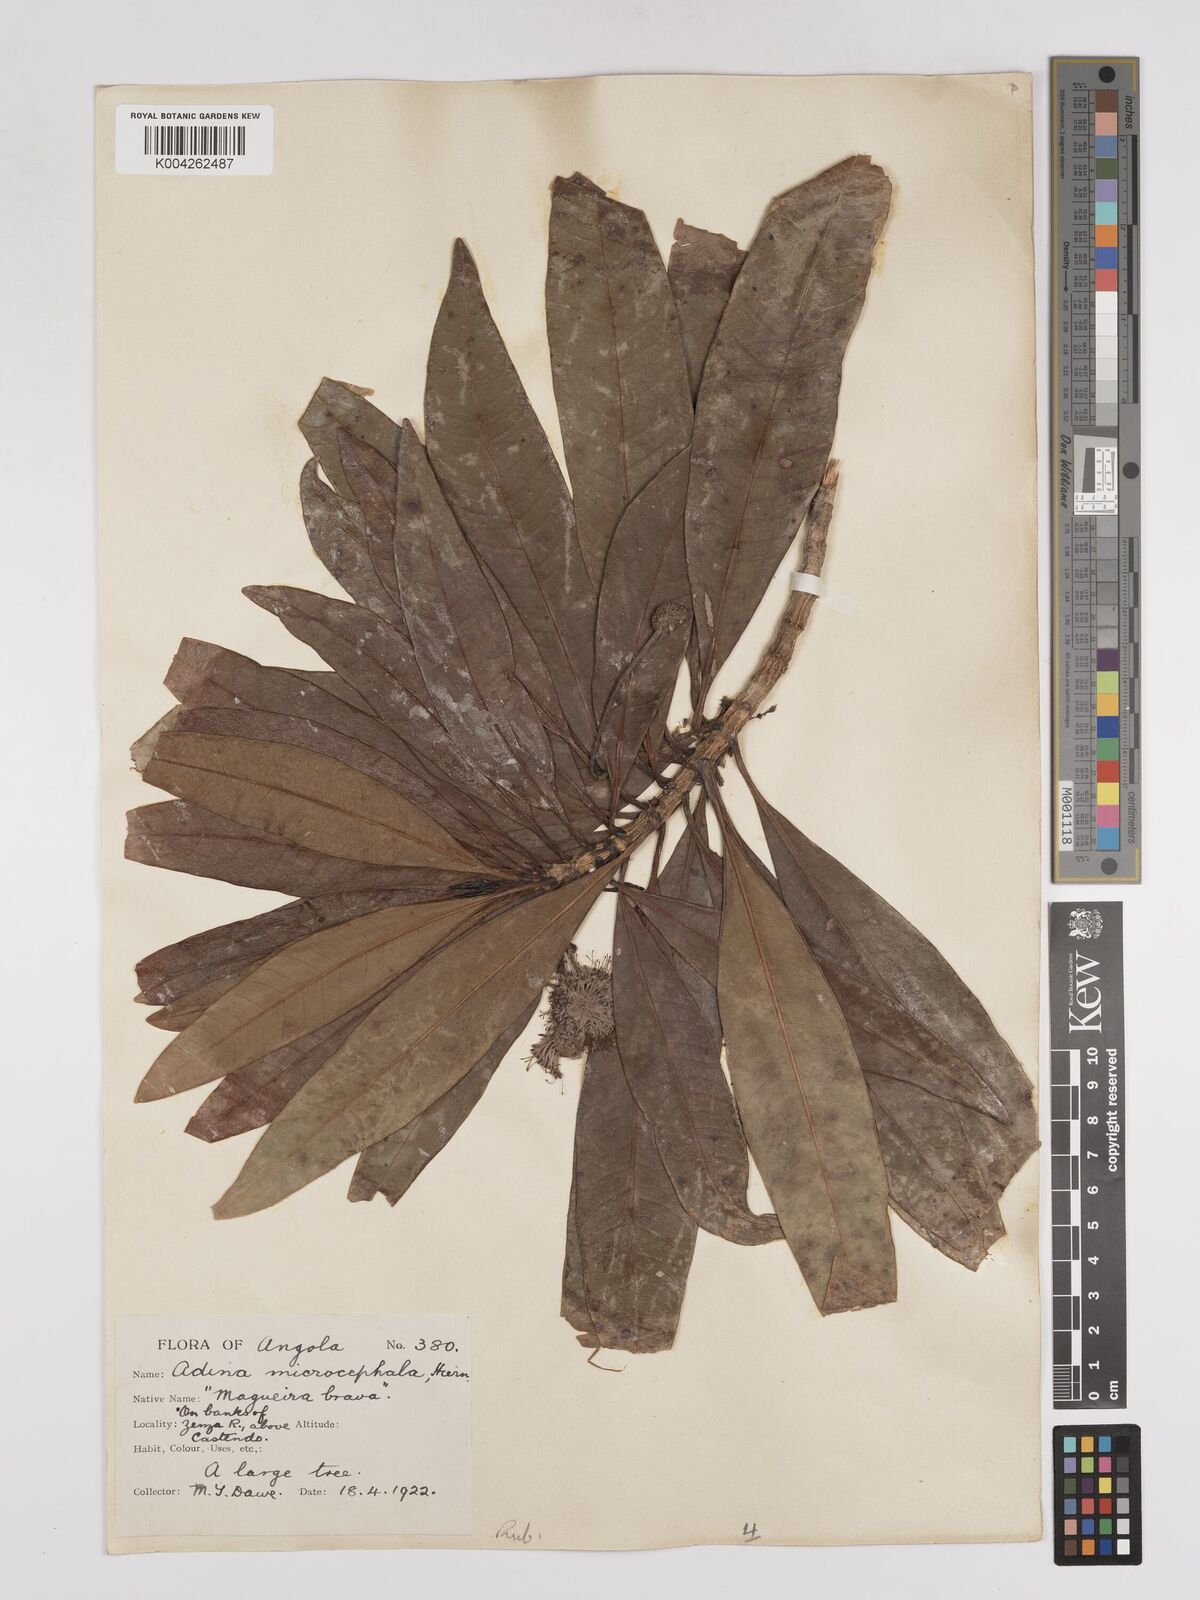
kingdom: Plantae
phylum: Tracheophyta
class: Magnoliopsida
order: Gentianales
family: Rubiaceae
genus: Breonadia
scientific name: Breonadia salicina
